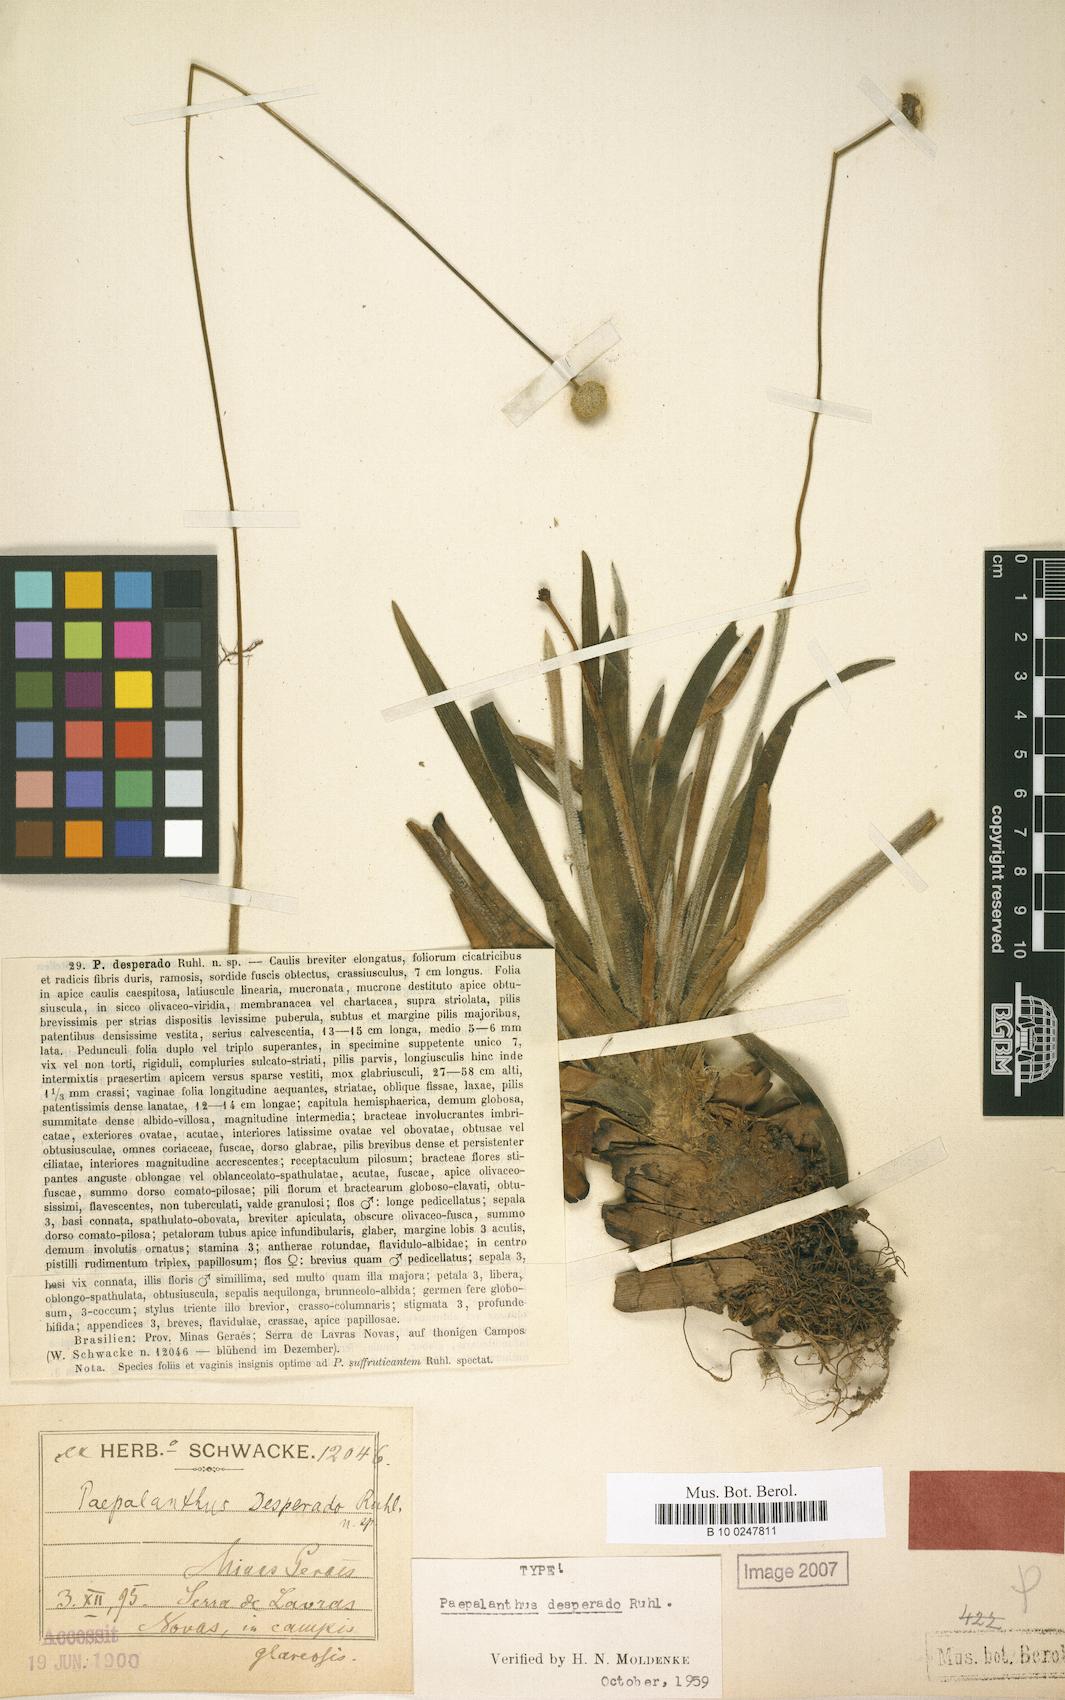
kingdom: Plantae
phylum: Tracheophyta
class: Liliopsida
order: Poales
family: Eriocaulaceae
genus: Paepalanthus
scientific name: Paepalanthus desperado
